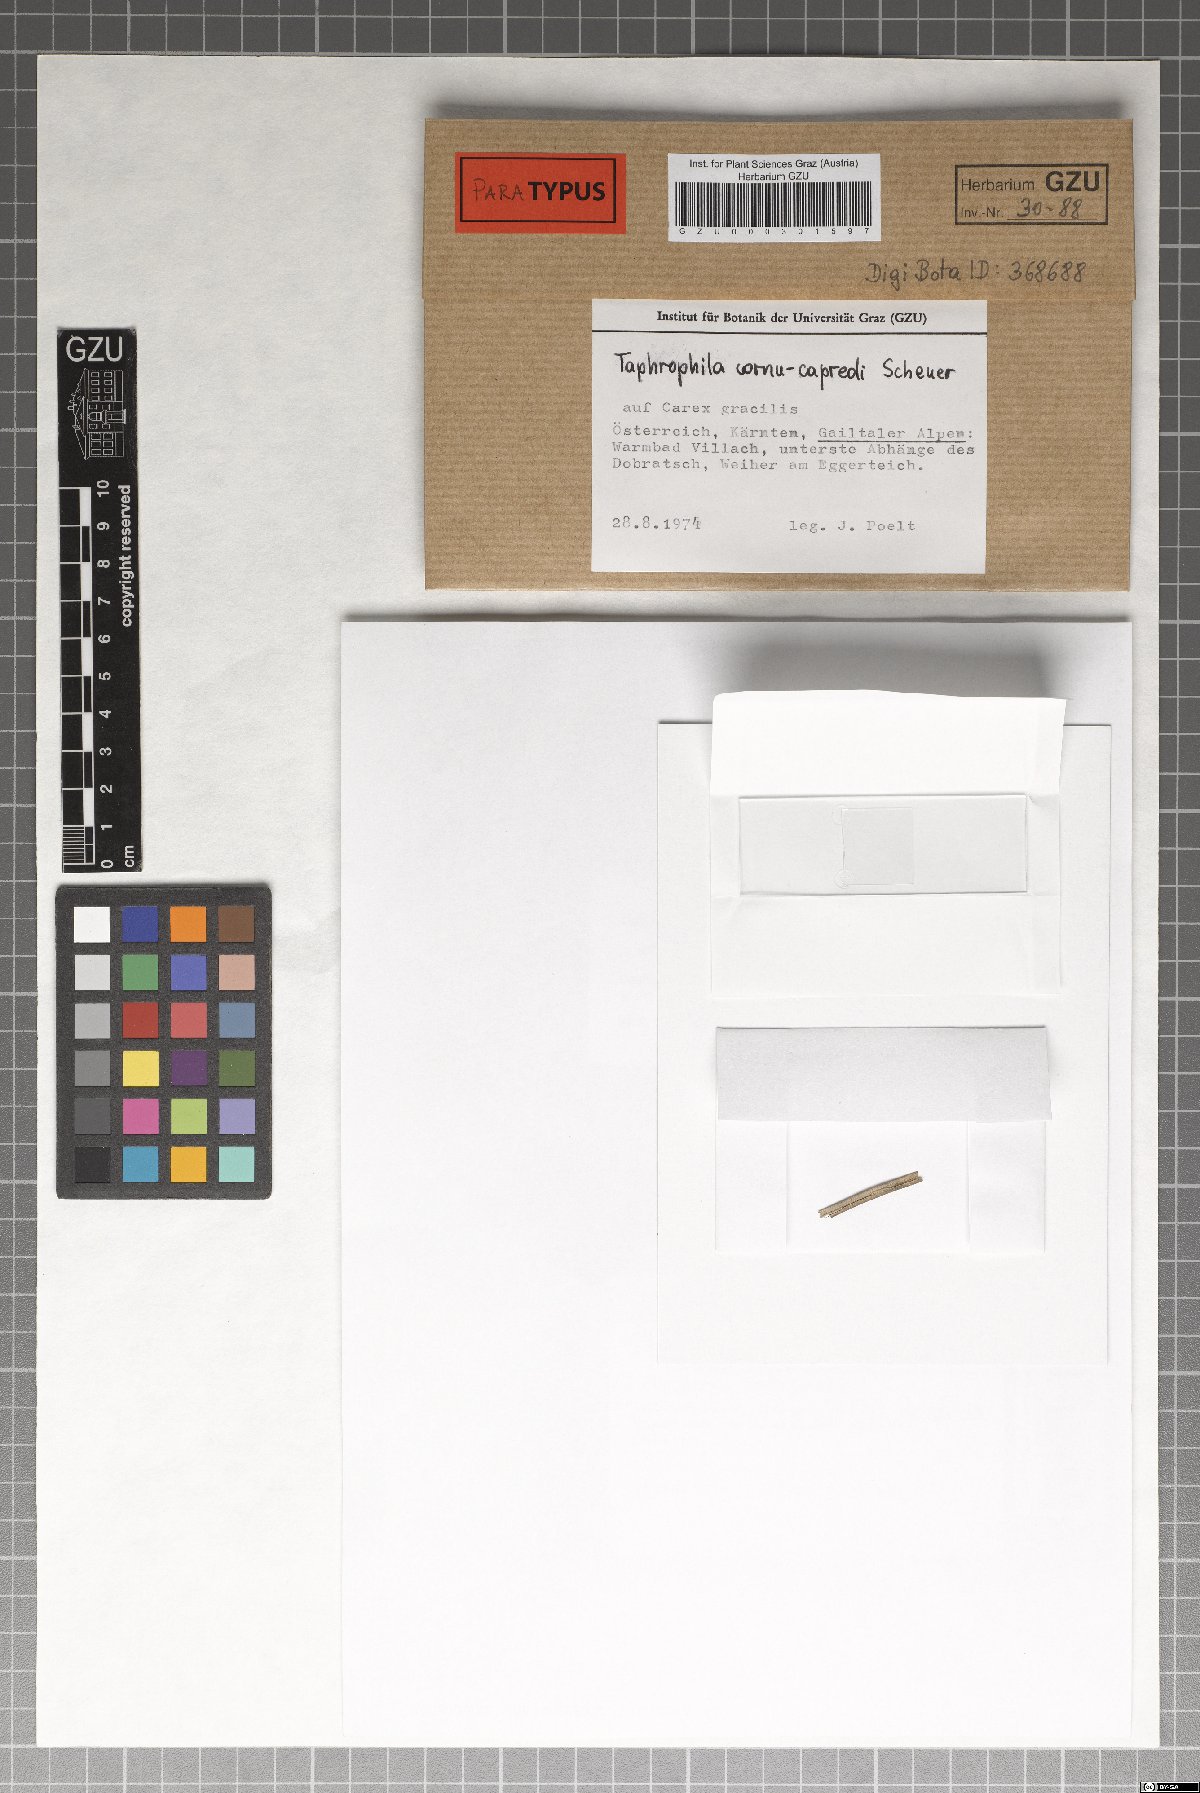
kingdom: Fungi
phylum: Ascomycota
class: Dothideomycetes
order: Tubeufiales
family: Tubeufiaceae
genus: Taphrophila
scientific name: Taphrophila cornu-capreoli
